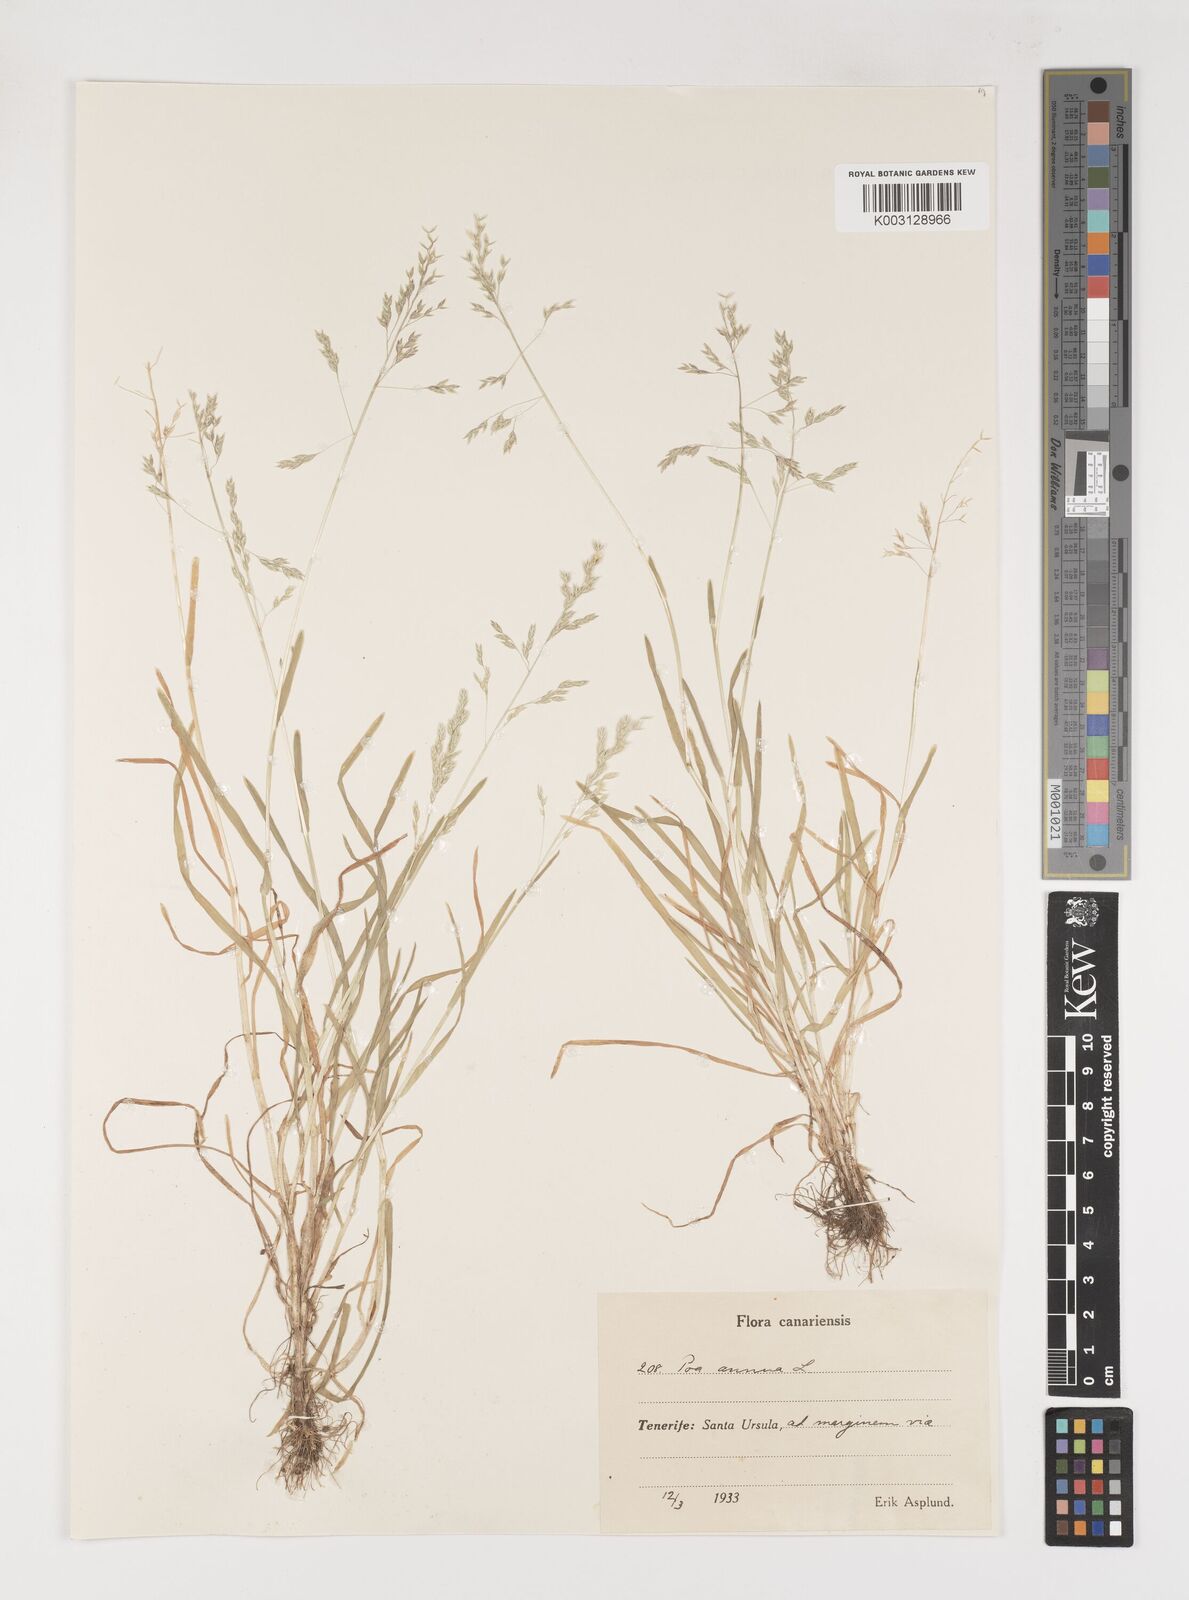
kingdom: Plantae
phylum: Tracheophyta
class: Liliopsida
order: Poales
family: Poaceae
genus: Poa
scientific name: Poa annua
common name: Annual bluegrass
